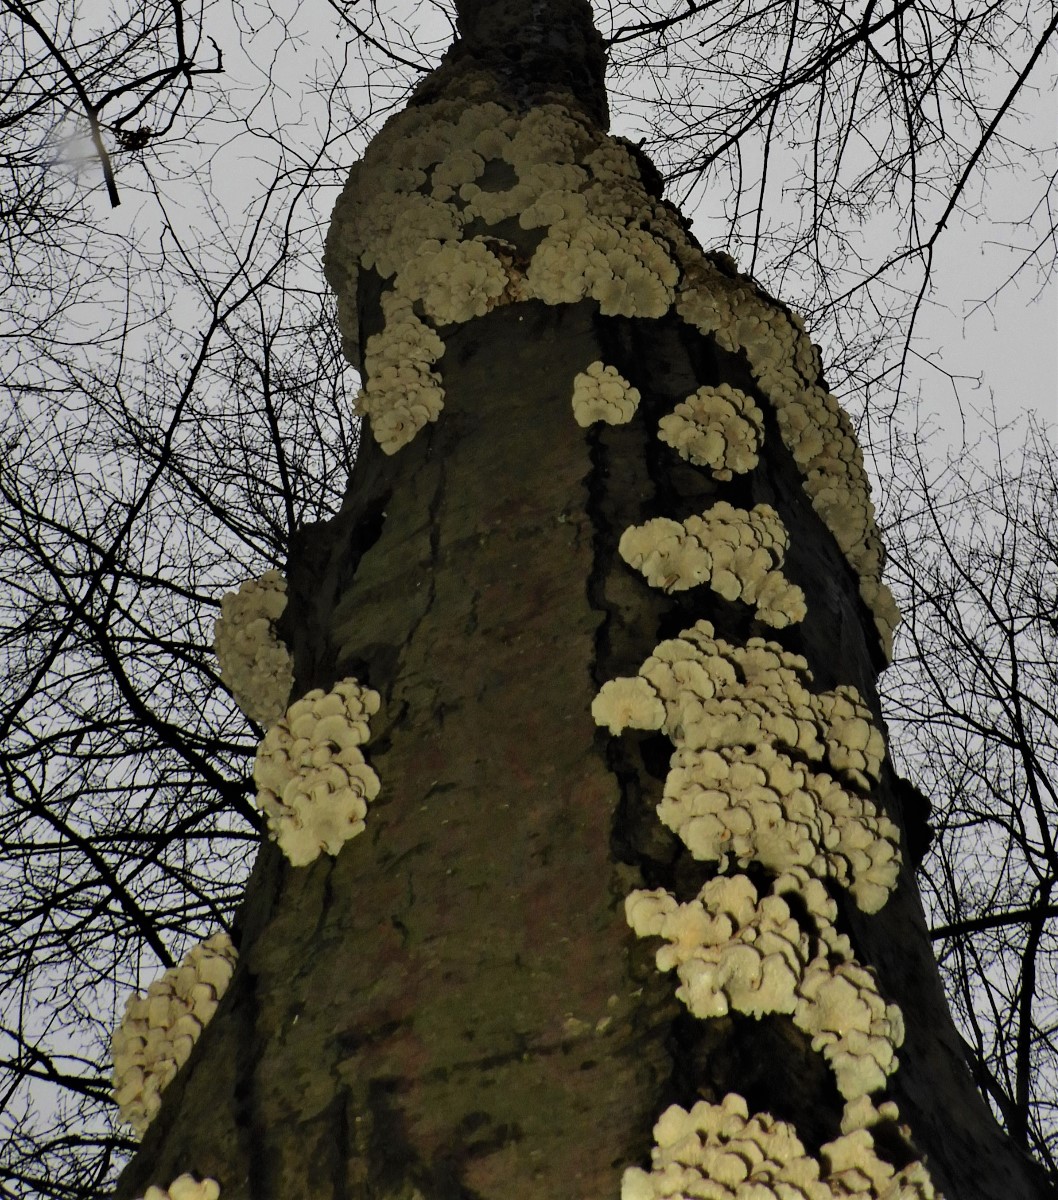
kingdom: Fungi
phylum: Basidiomycota
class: Agaricomycetes
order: Amylocorticiales
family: Amylocorticiaceae
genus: Plicaturopsis
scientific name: Plicaturopsis crispa
